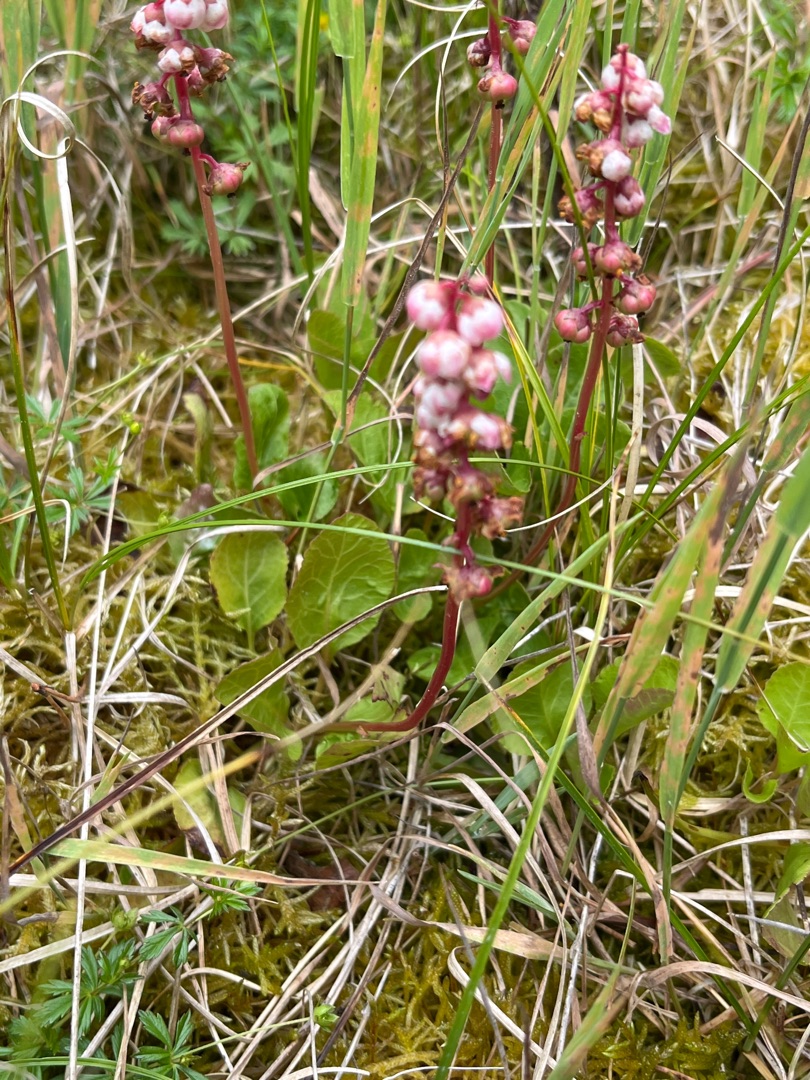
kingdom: Plantae
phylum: Tracheophyta
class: Magnoliopsida
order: Ericales
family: Ericaceae
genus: Pyrola
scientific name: Pyrola minor
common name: Liden vintergrøn
